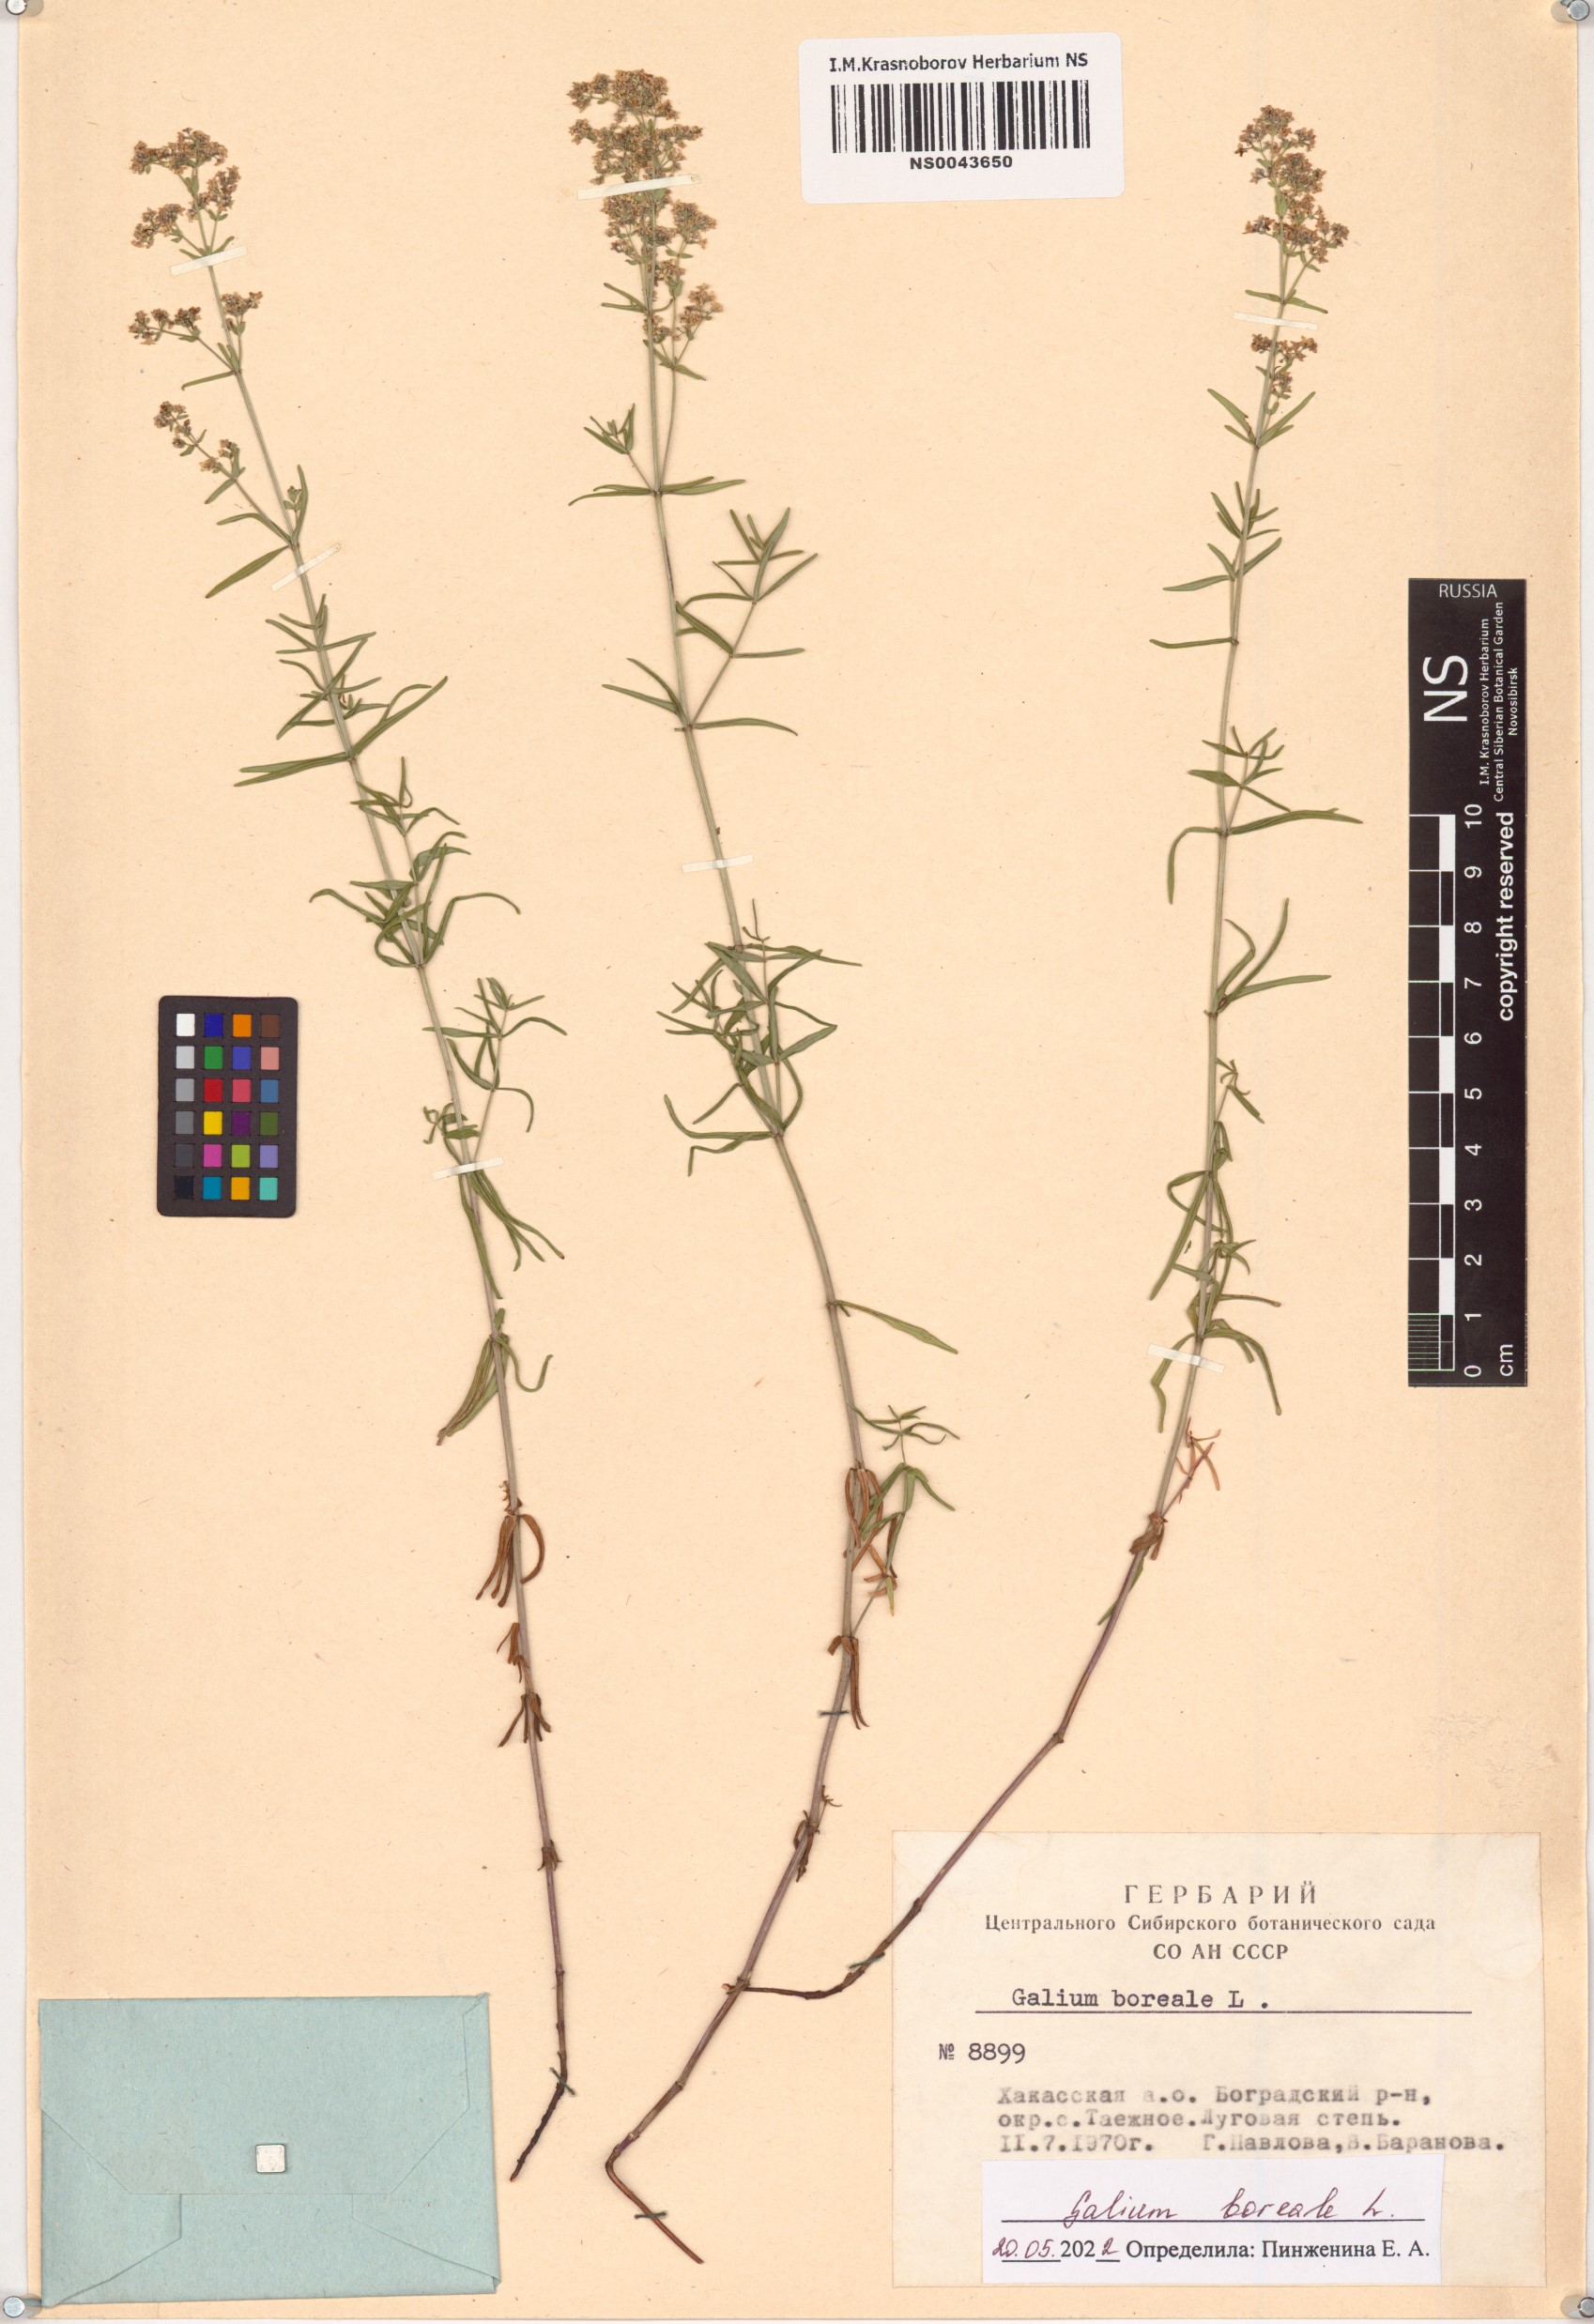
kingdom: Plantae
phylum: Tracheophyta
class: Magnoliopsida
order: Gentianales
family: Rubiaceae
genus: Galium
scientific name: Galium boreale
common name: Northern bedstraw
